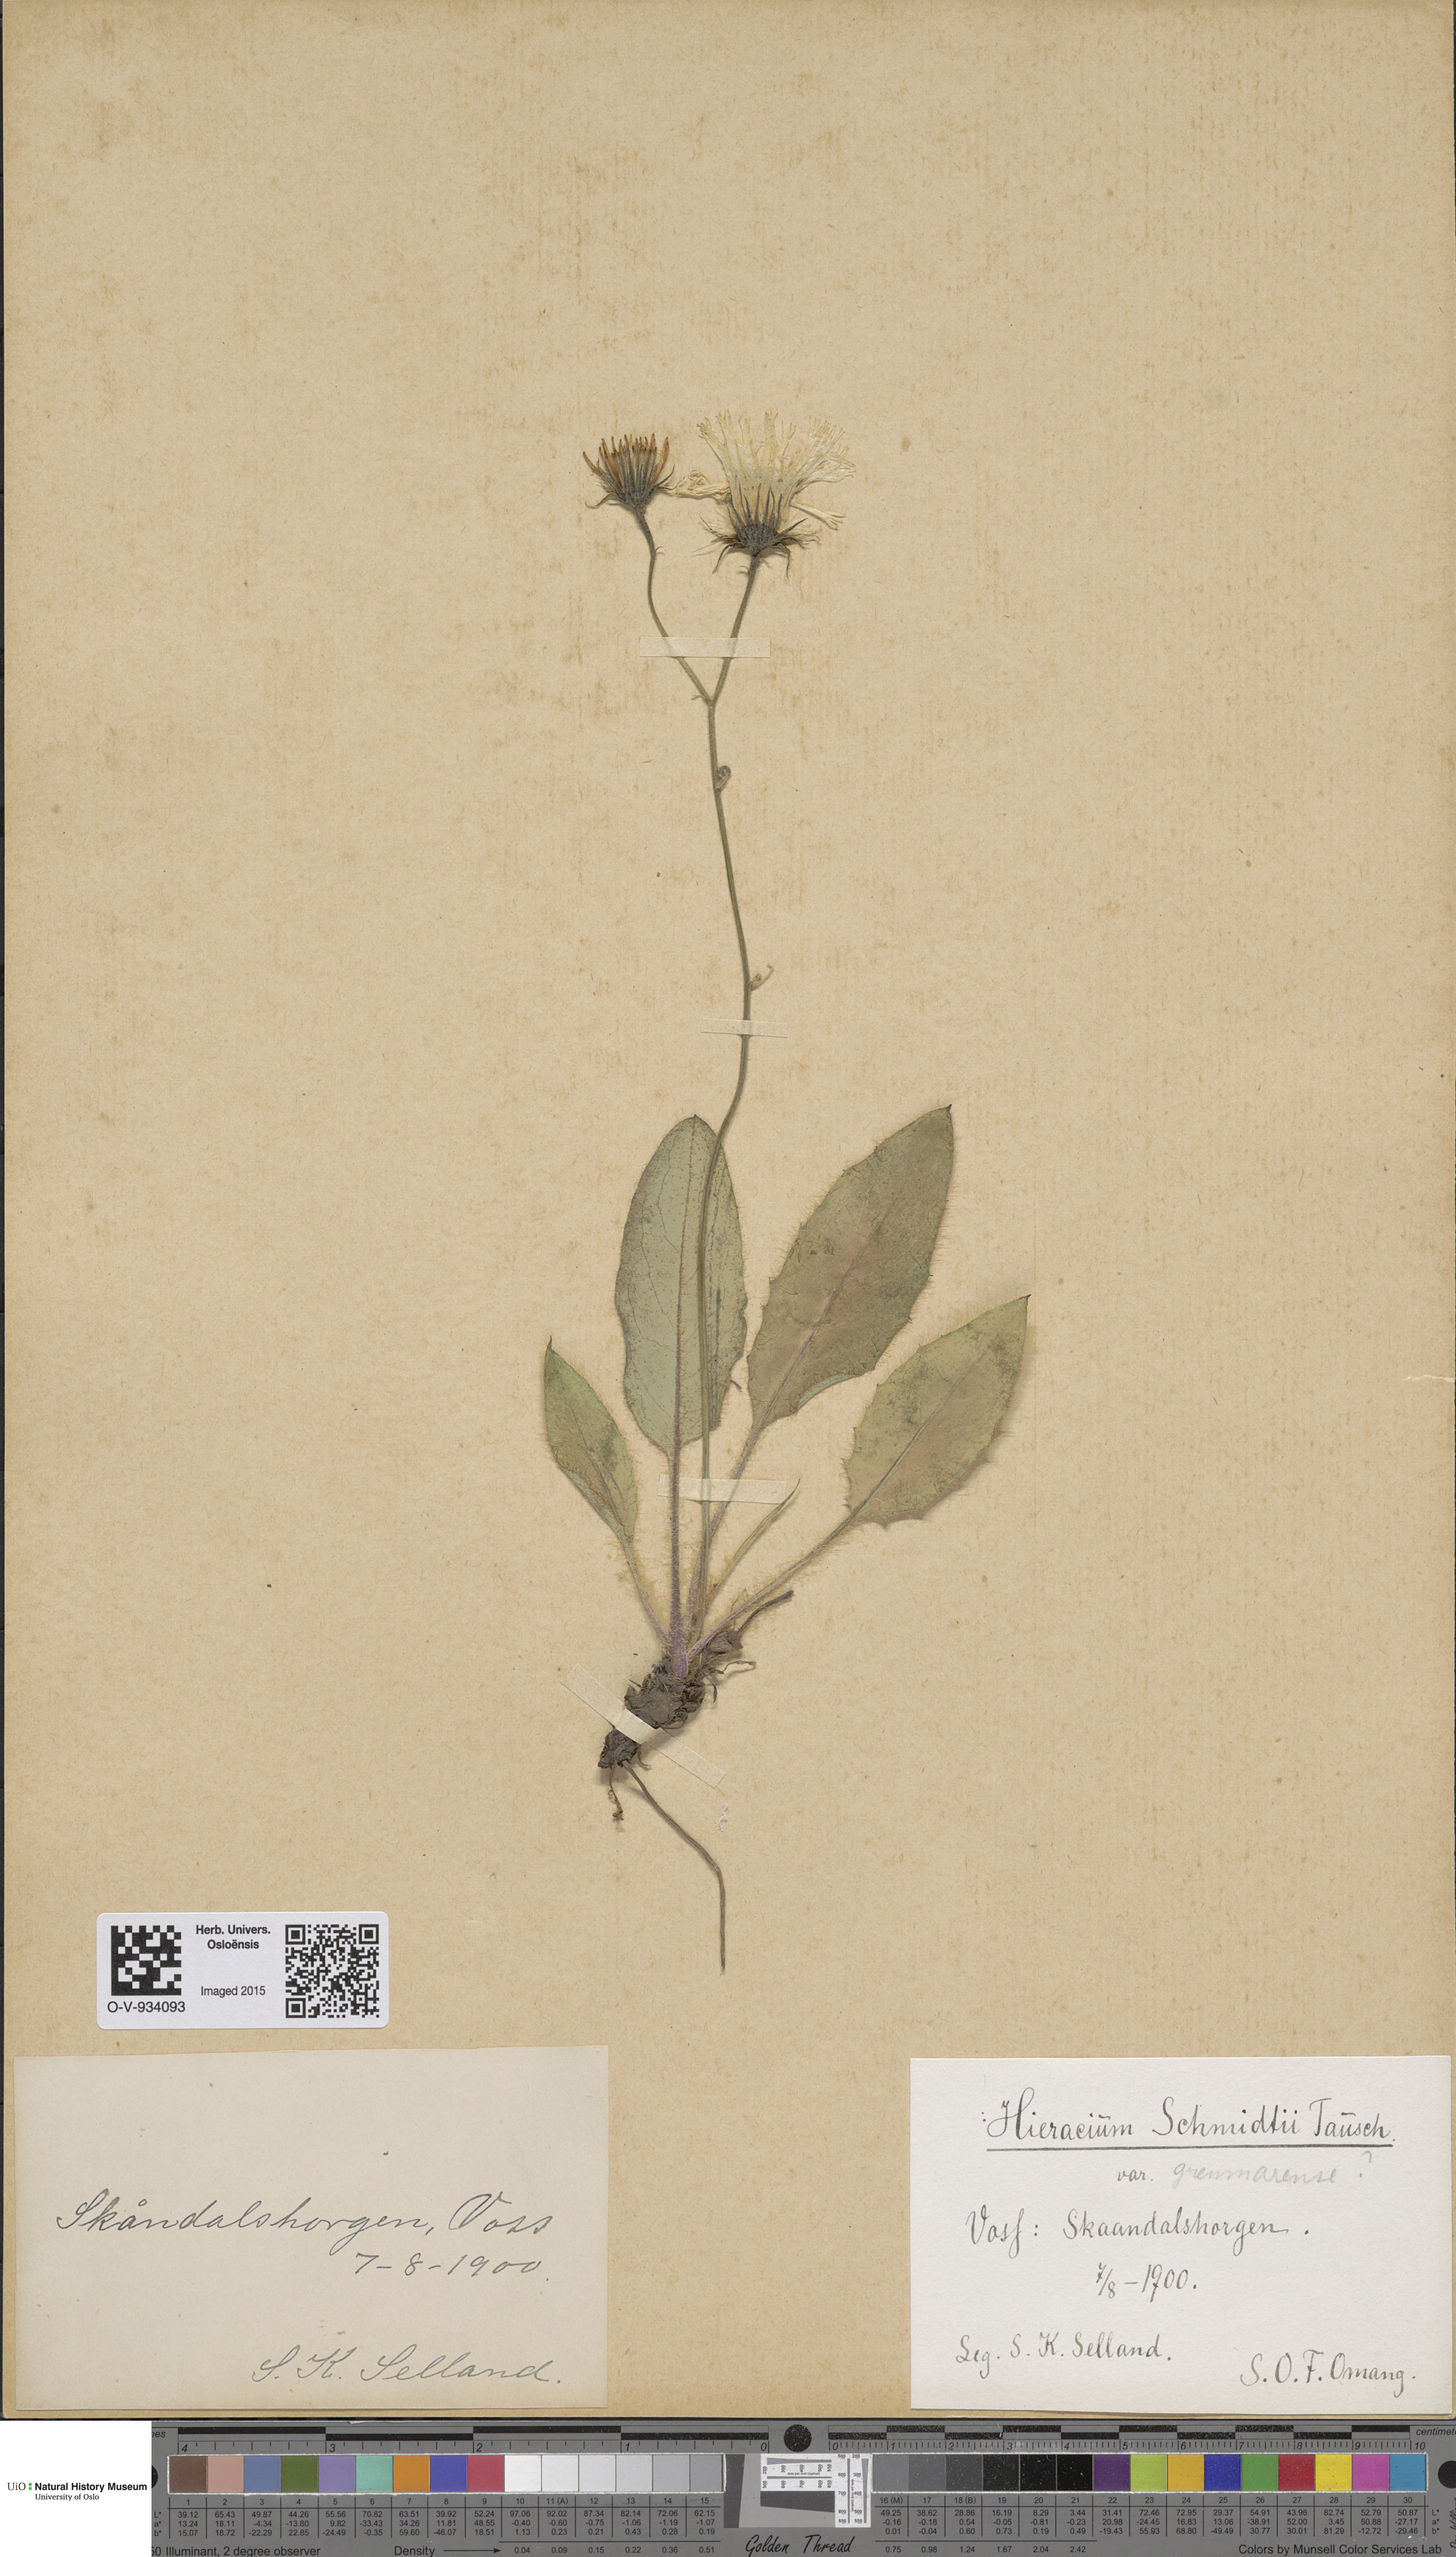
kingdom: Plantae
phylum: Tracheophyta
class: Magnoliopsida
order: Asterales
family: Asteraceae
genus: Hieracium
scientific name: Hieracium schmidtii
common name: Schmidt's hawkweed
